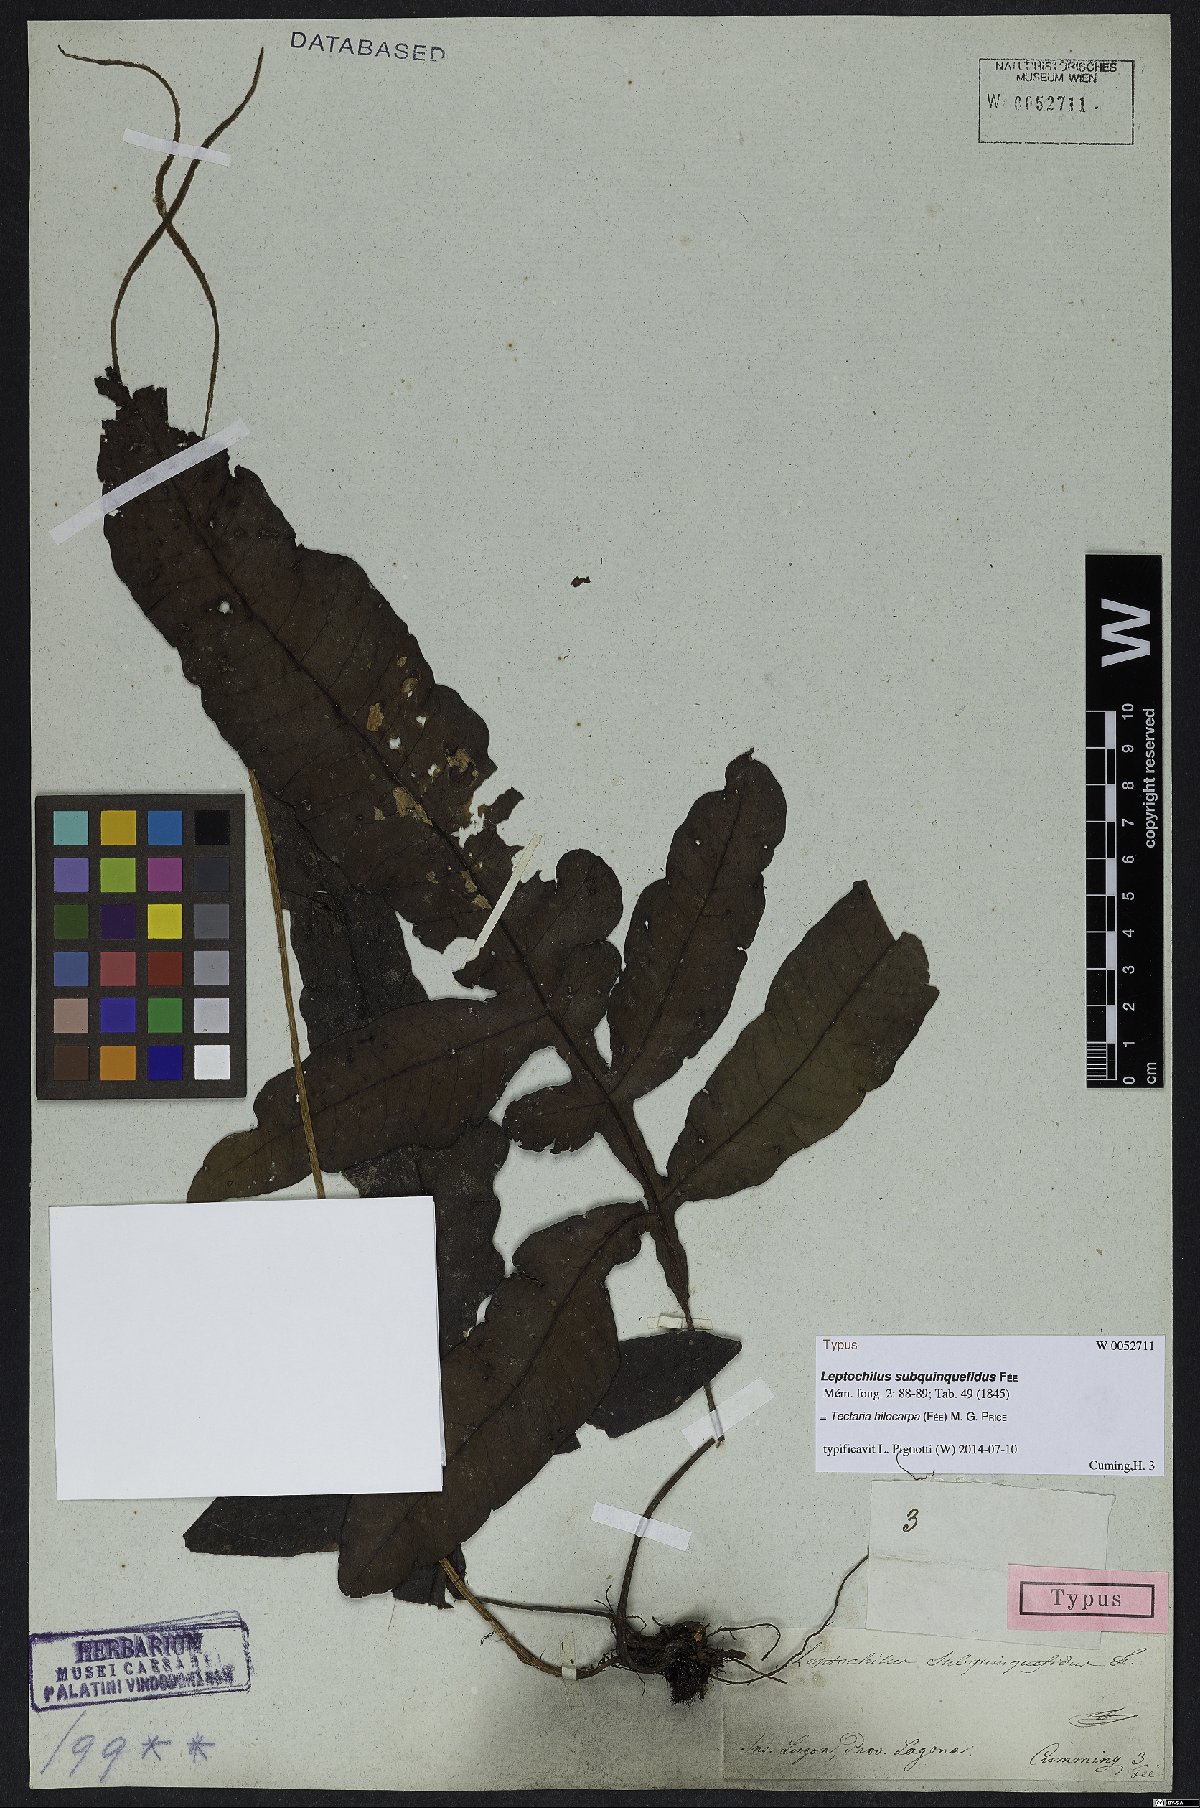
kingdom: Plantae
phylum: Tracheophyta
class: Polypodiopsida
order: Polypodiales
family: Tectariaceae
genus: Tectaria
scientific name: Tectaria hilocarpa
